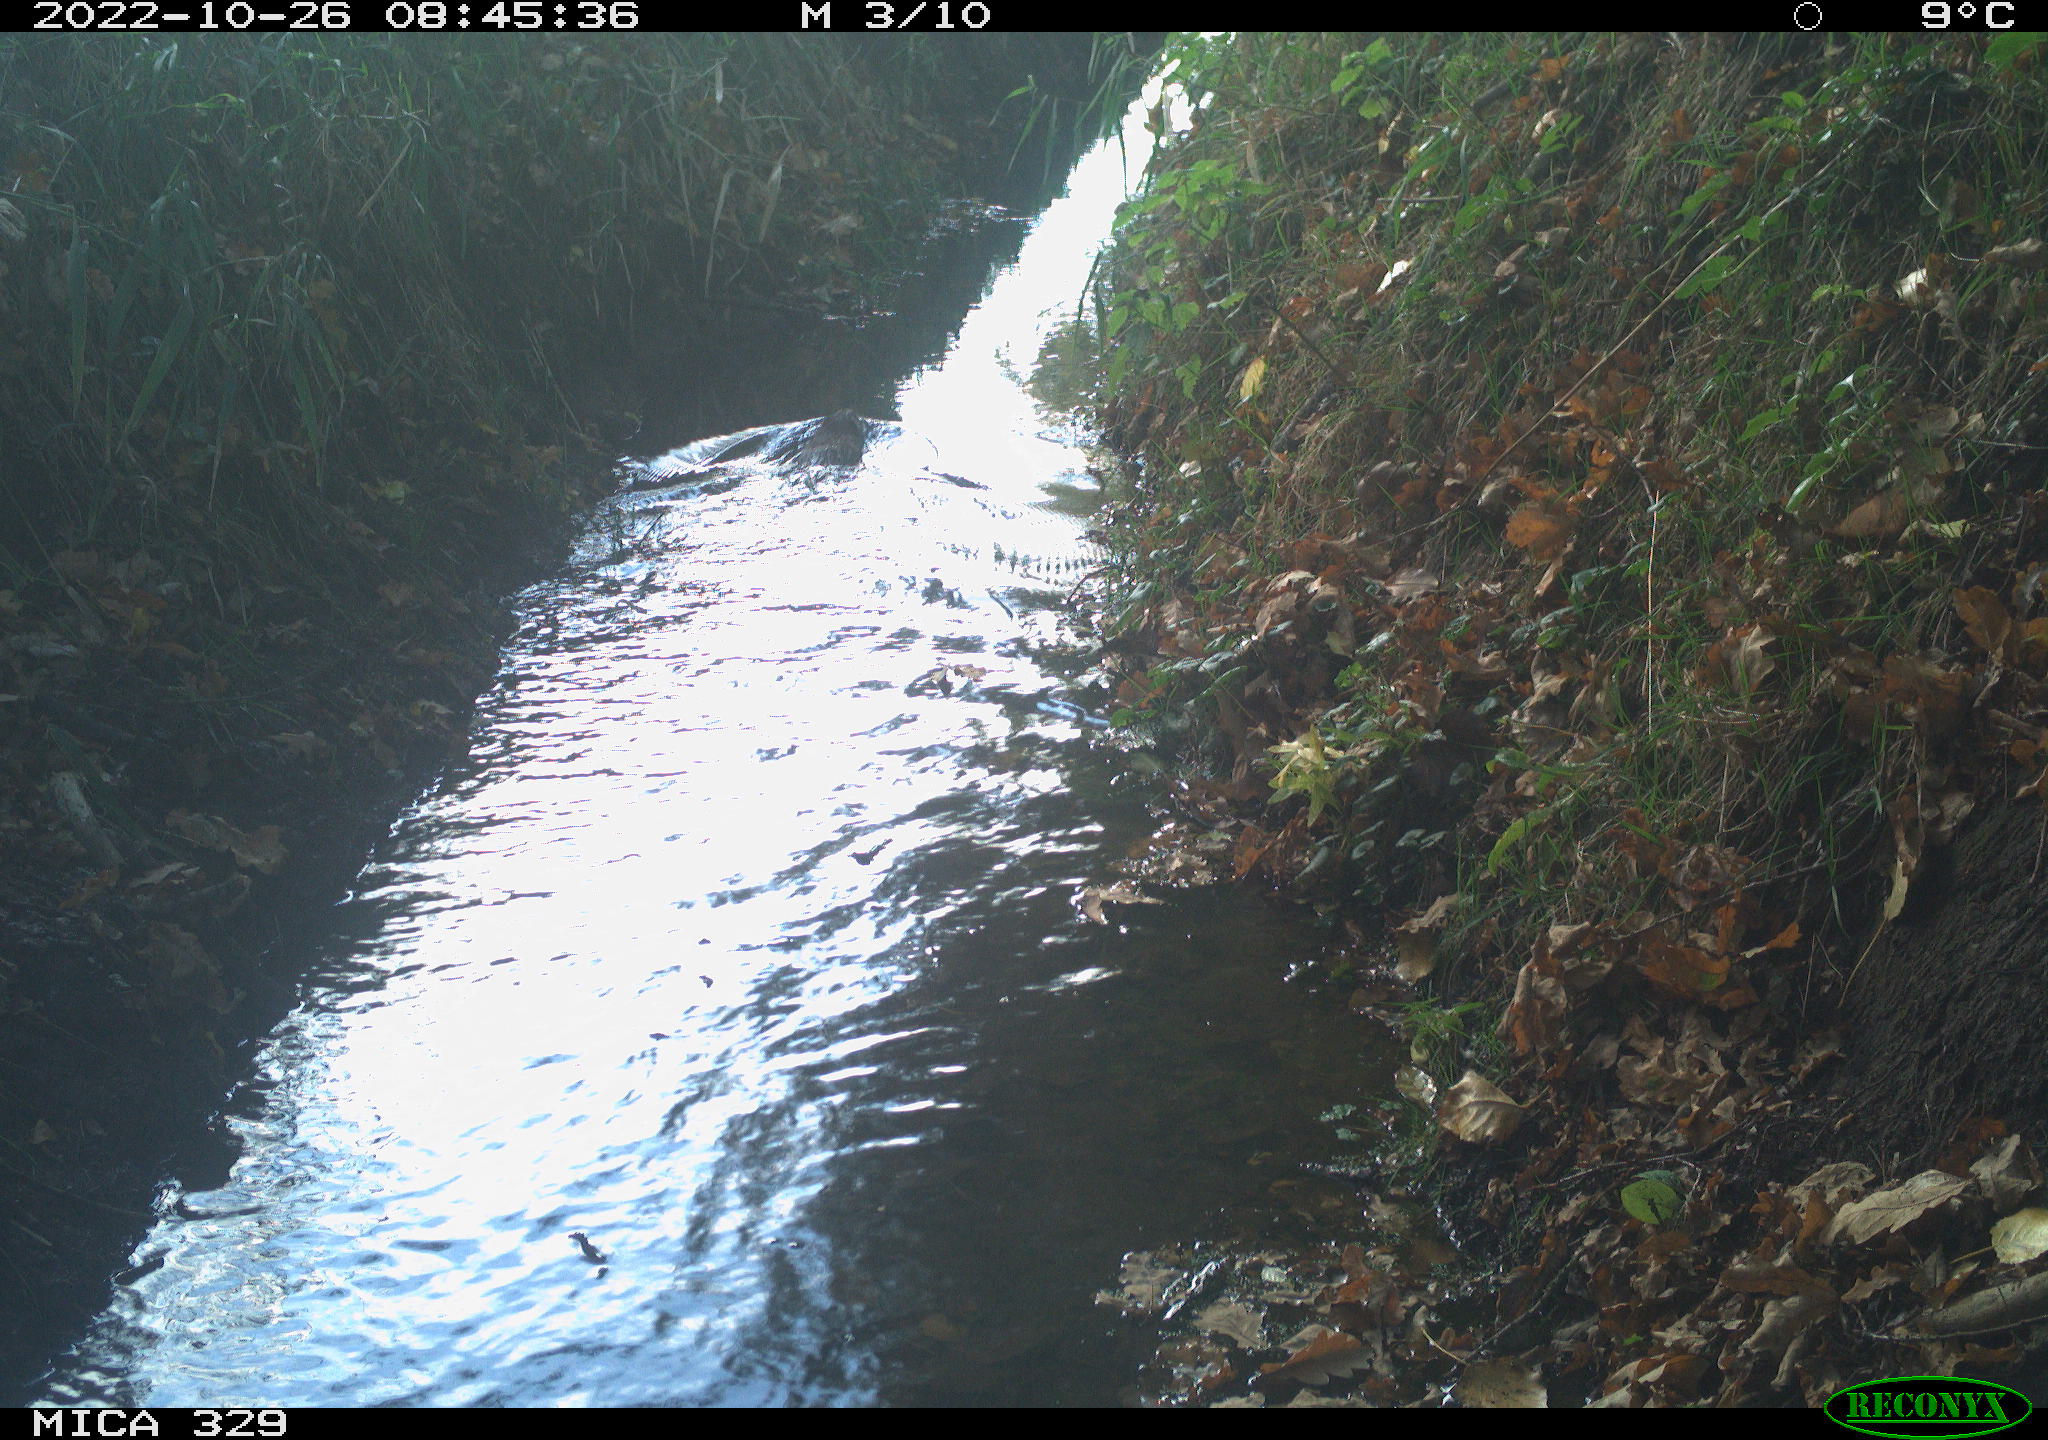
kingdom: Animalia
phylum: Chordata
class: Mammalia
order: Rodentia
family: Cricetidae
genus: Ondatra
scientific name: Ondatra zibethicus
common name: Muskrat
